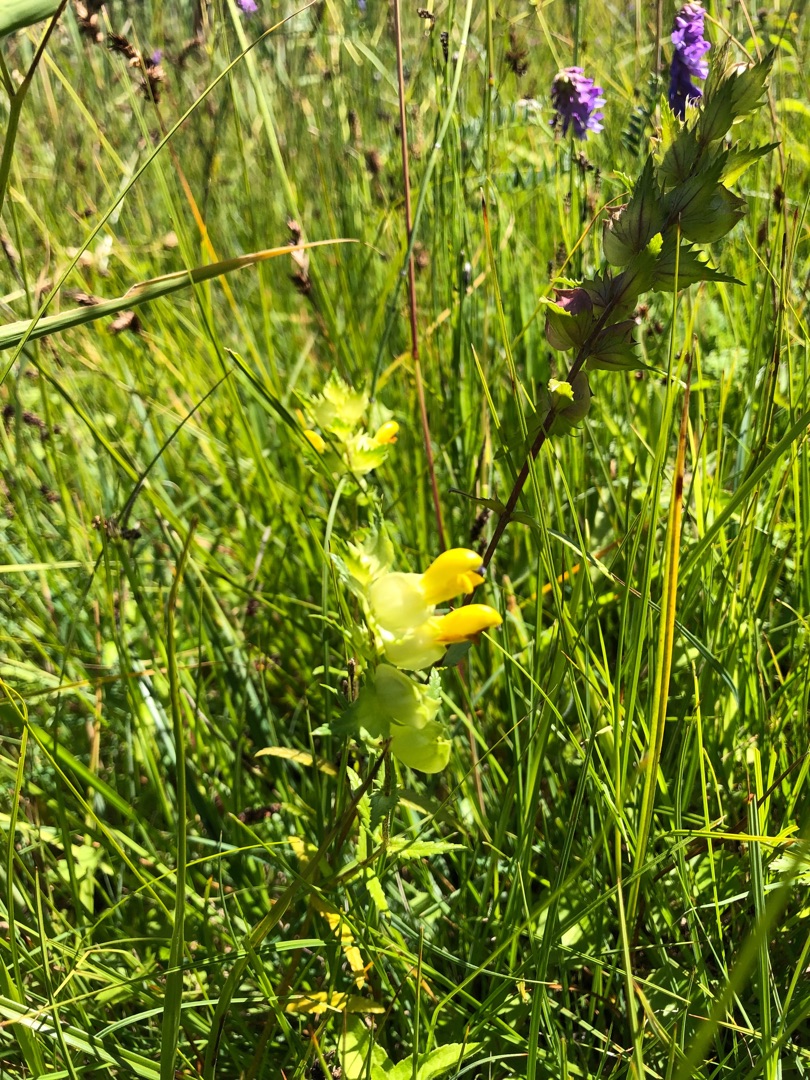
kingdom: Plantae
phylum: Tracheophyta
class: Magnoliopsida
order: Lamiales
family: Orobanchaceae
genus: Rhinanthus
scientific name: Rhinanthus
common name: Stor skjaller
